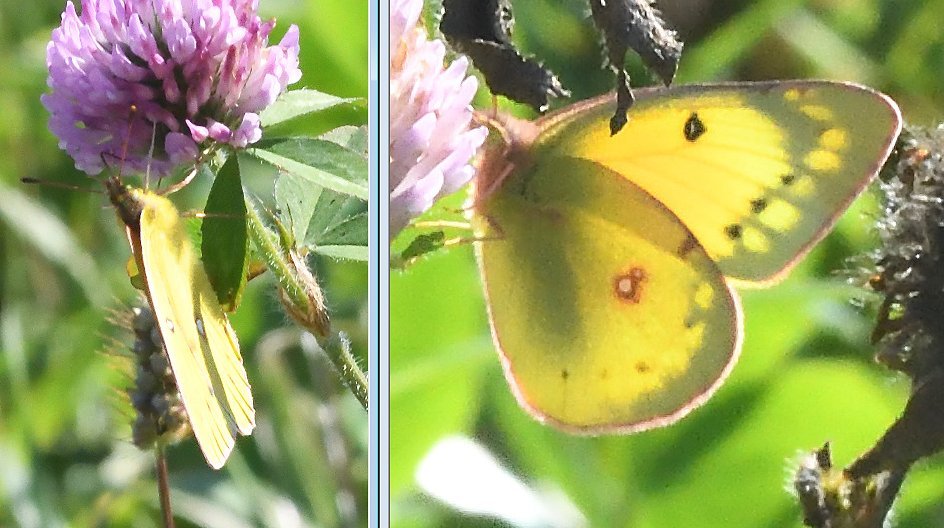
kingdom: Animalia
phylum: Arthropoda
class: Insecta
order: Lepidoptera
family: Pieridae
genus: Colias
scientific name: Colias eurytheme
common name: Orange Sulphur
